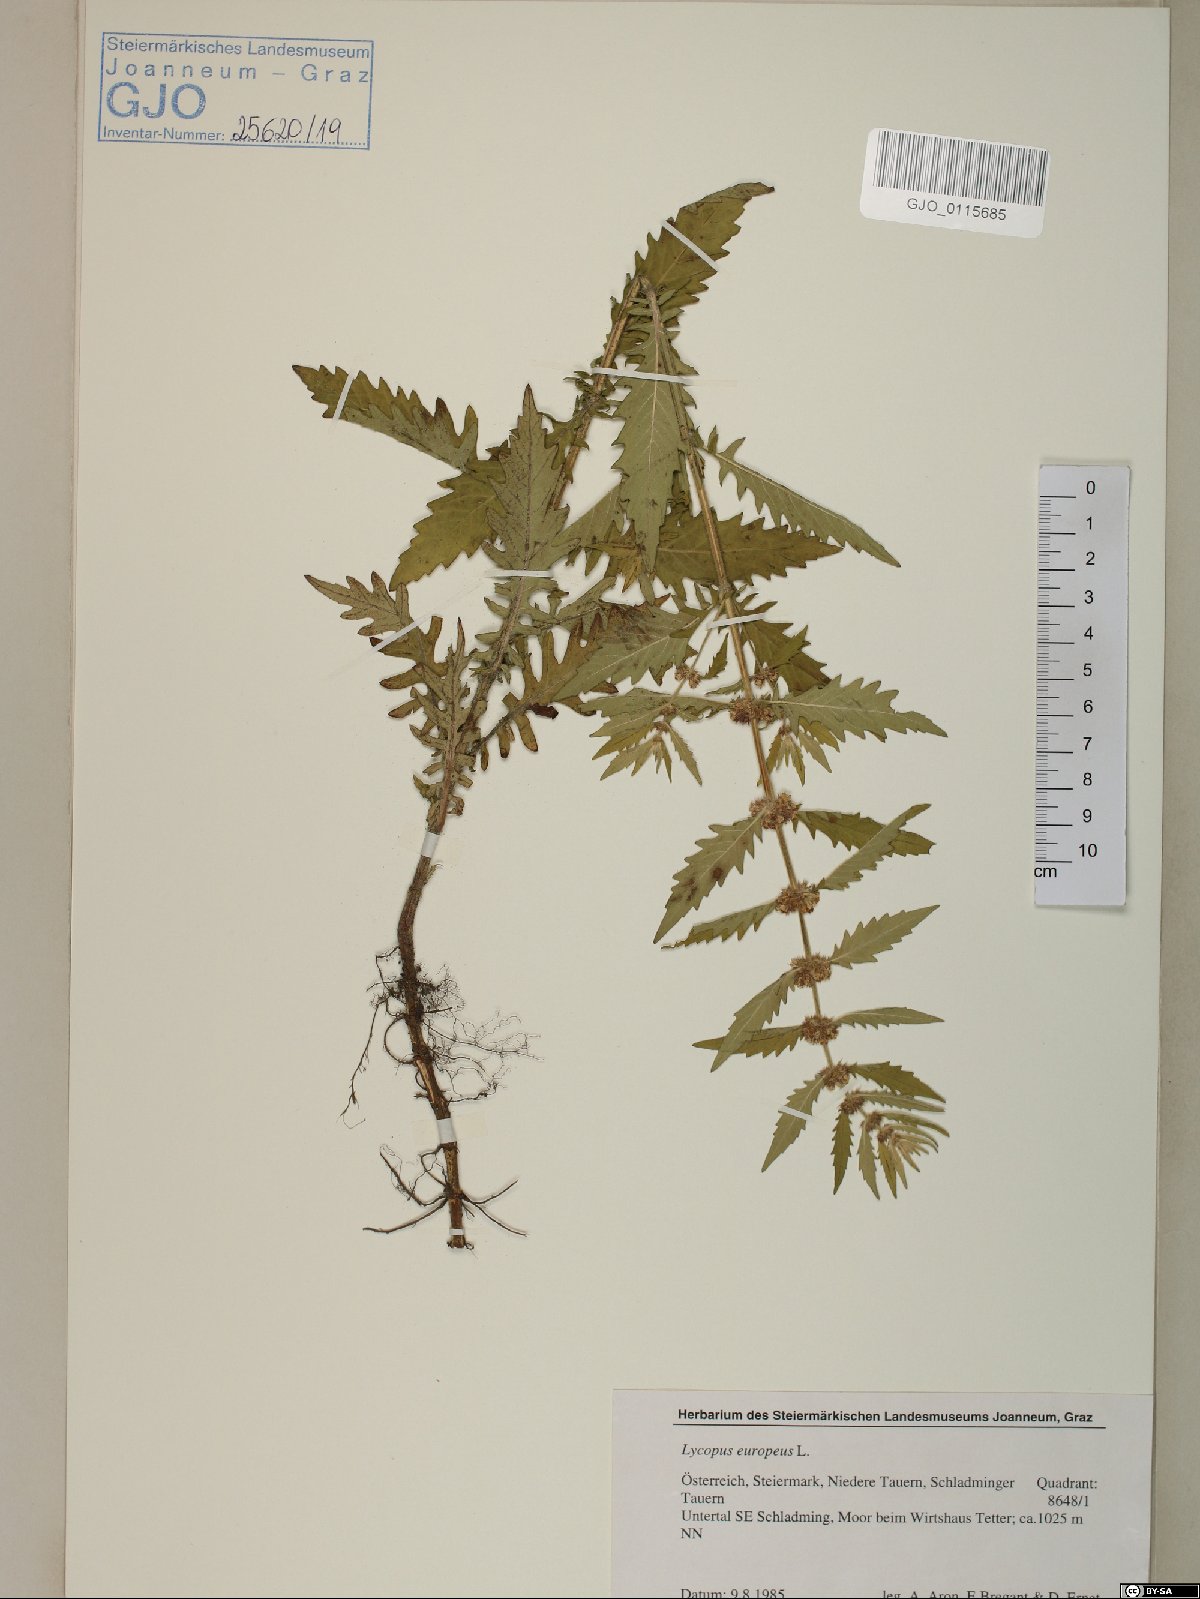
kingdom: Plantae
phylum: Tracheophyta
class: Magnoliopsida
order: Lamiales
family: Lamiaceae
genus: Lycopus
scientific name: Lycopus europaeus
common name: European bugleweed
